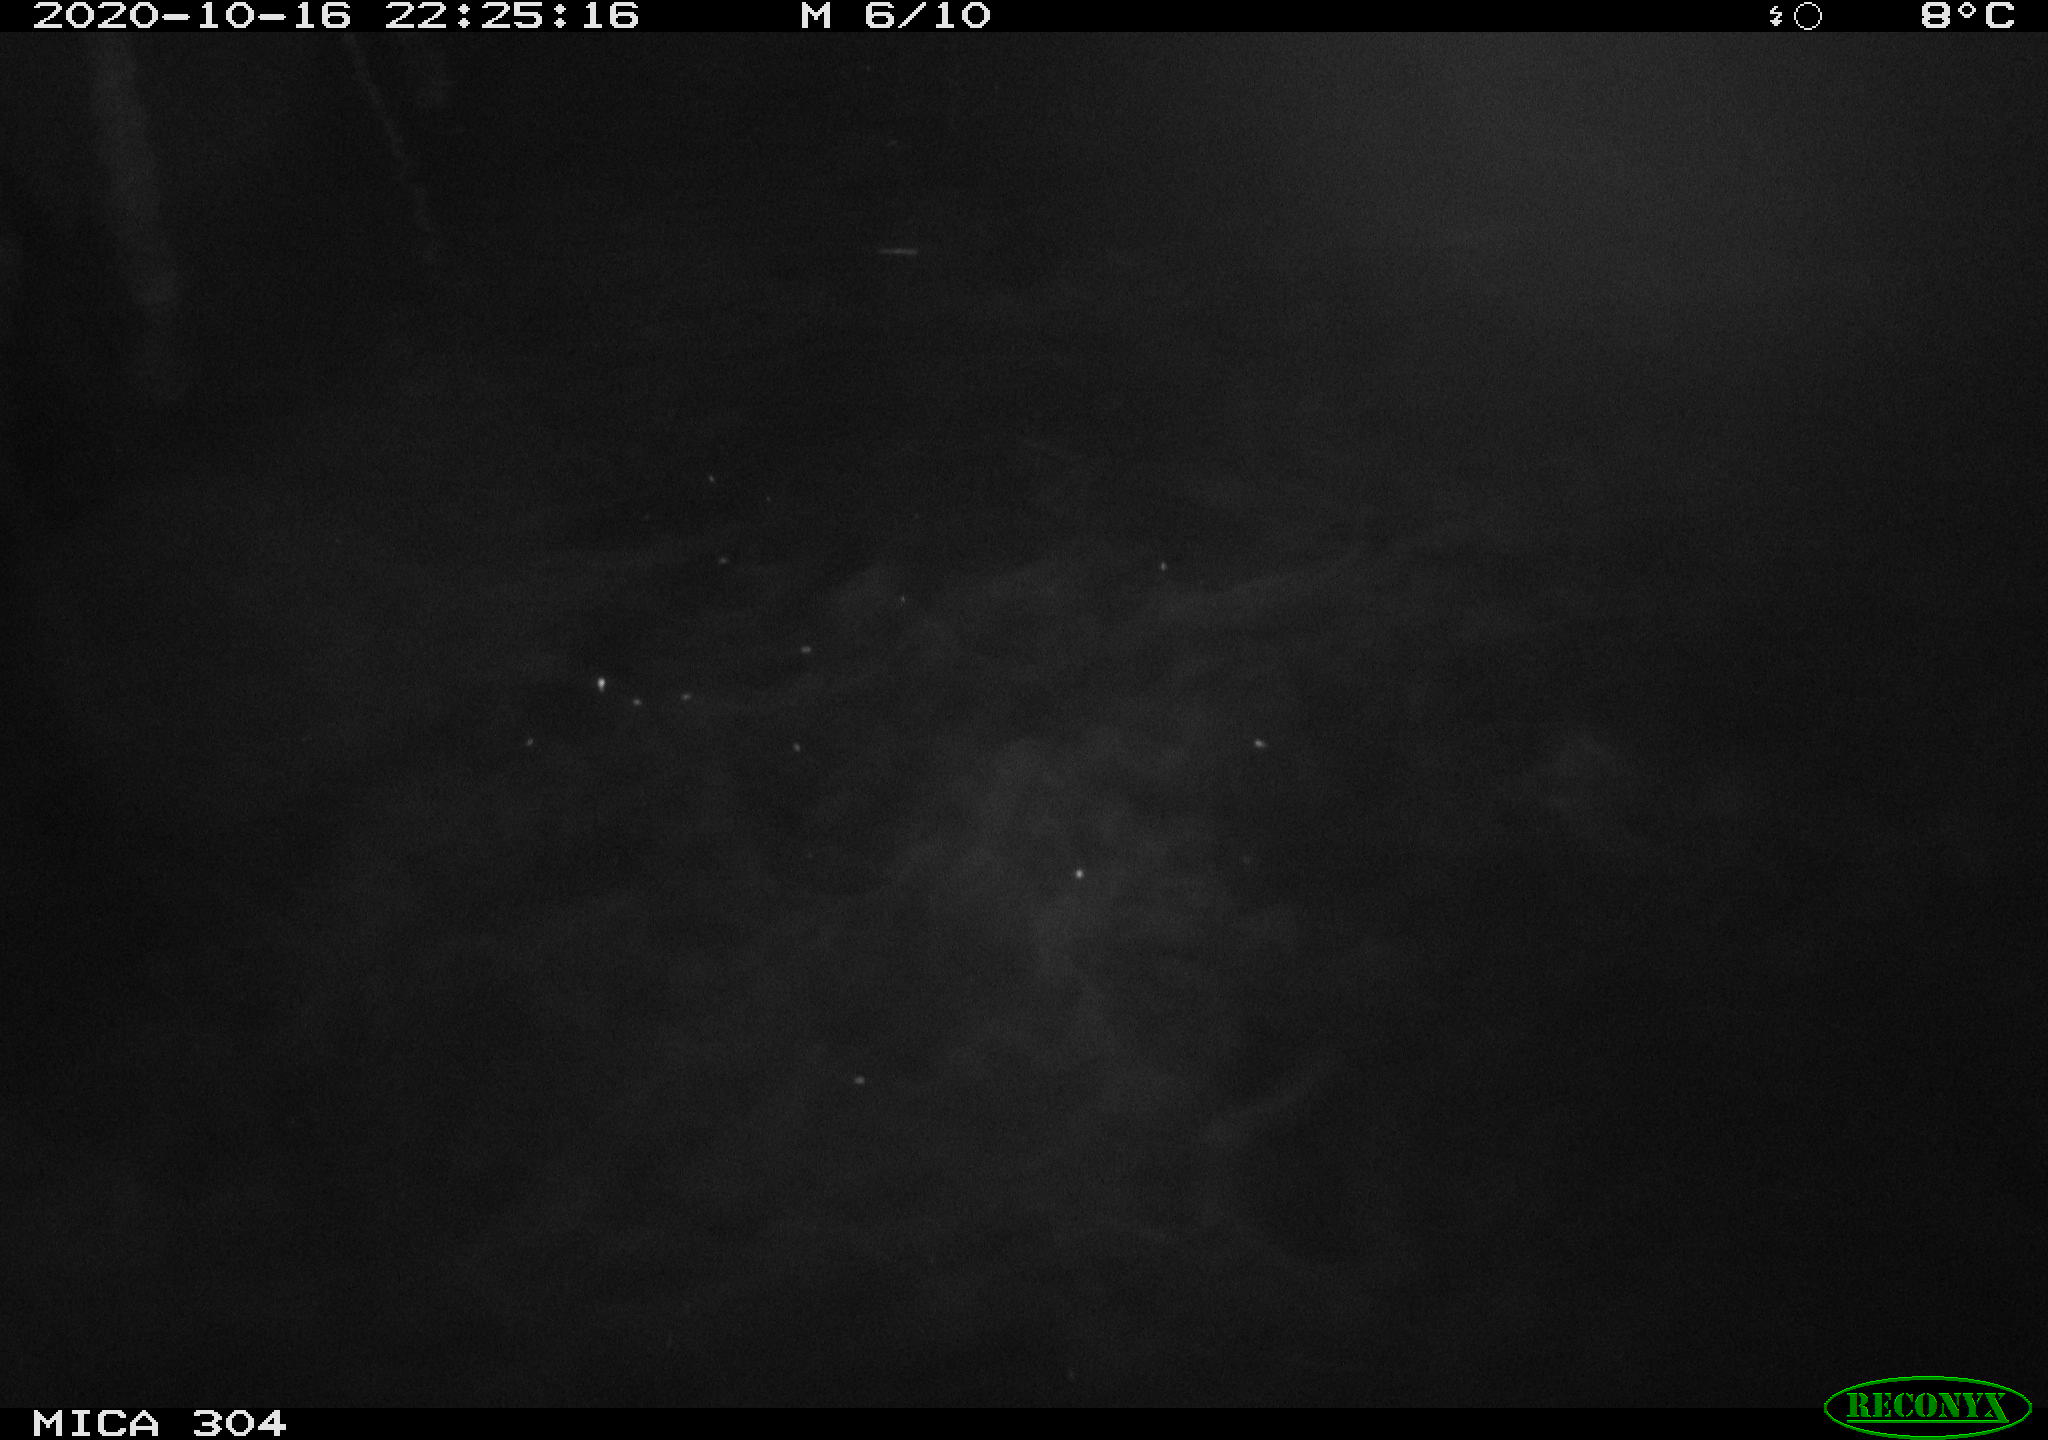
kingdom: Animalia
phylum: Chordata
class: Mammalia
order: Rodentia
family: Muridae
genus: Rattus
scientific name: Rattus norvegicus
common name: Brown rat
